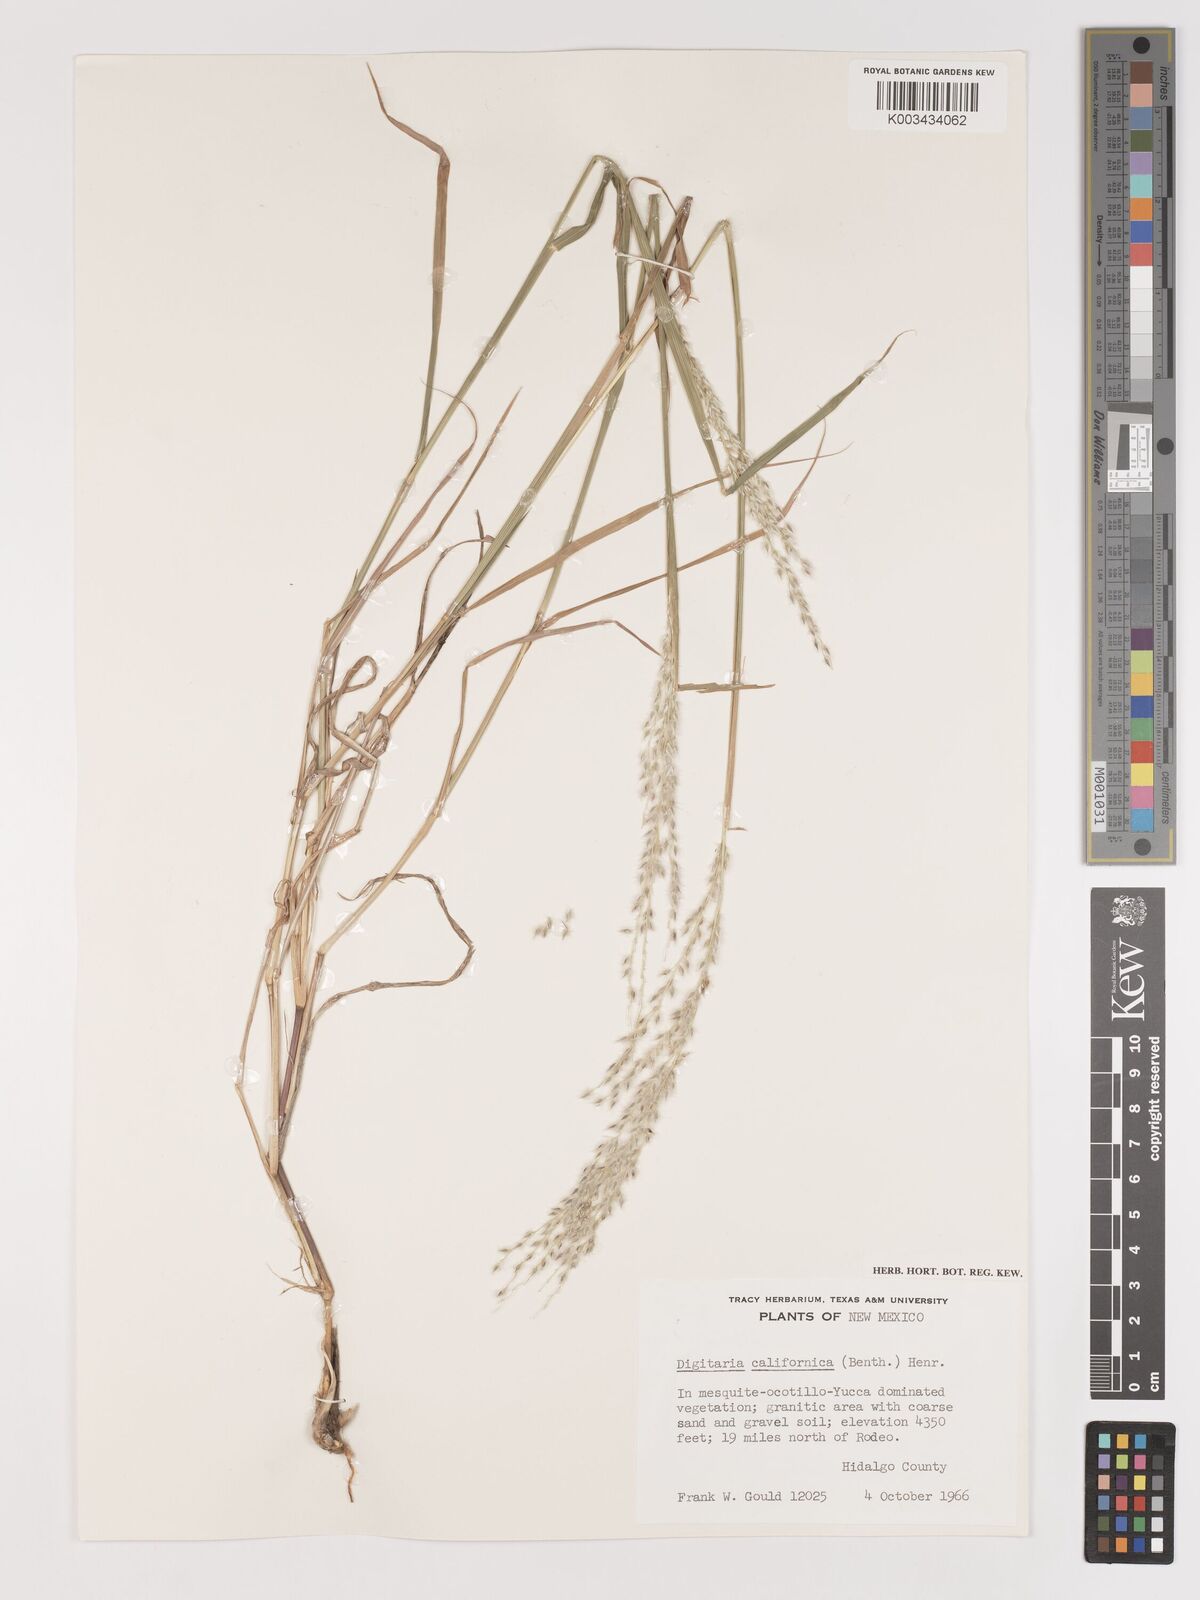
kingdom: Plantae
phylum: Tracheophyta
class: Liliopsida
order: Poales
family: Poaceae
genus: Digitaria
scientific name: Digitaria californica
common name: Arizona cottontop
